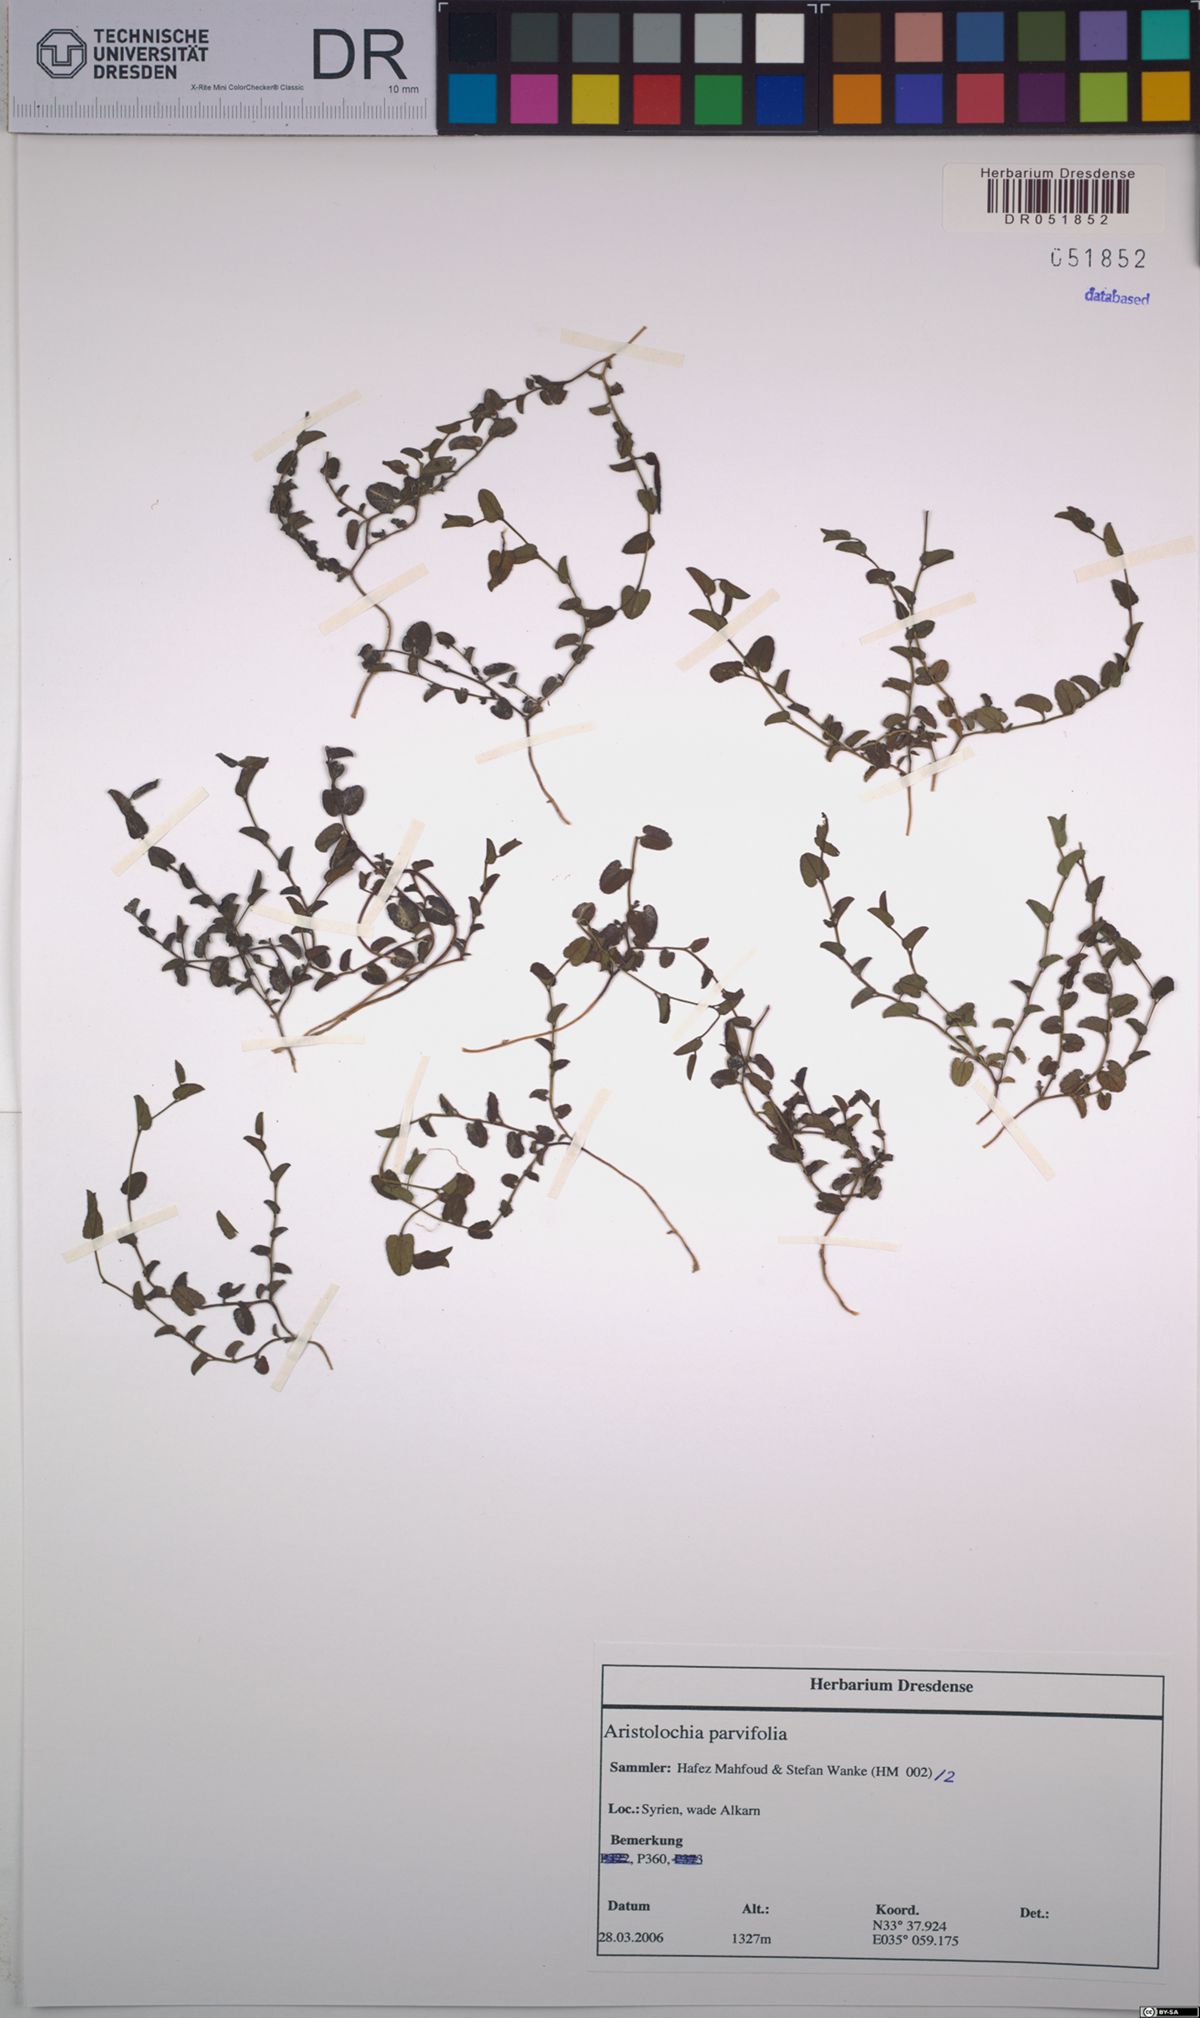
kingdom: Plantae
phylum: Tracheophyta
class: Magnoliopsida
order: Piperales
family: Aristolochiaceae
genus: Aristolochia
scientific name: Aristolochia parvifolia
